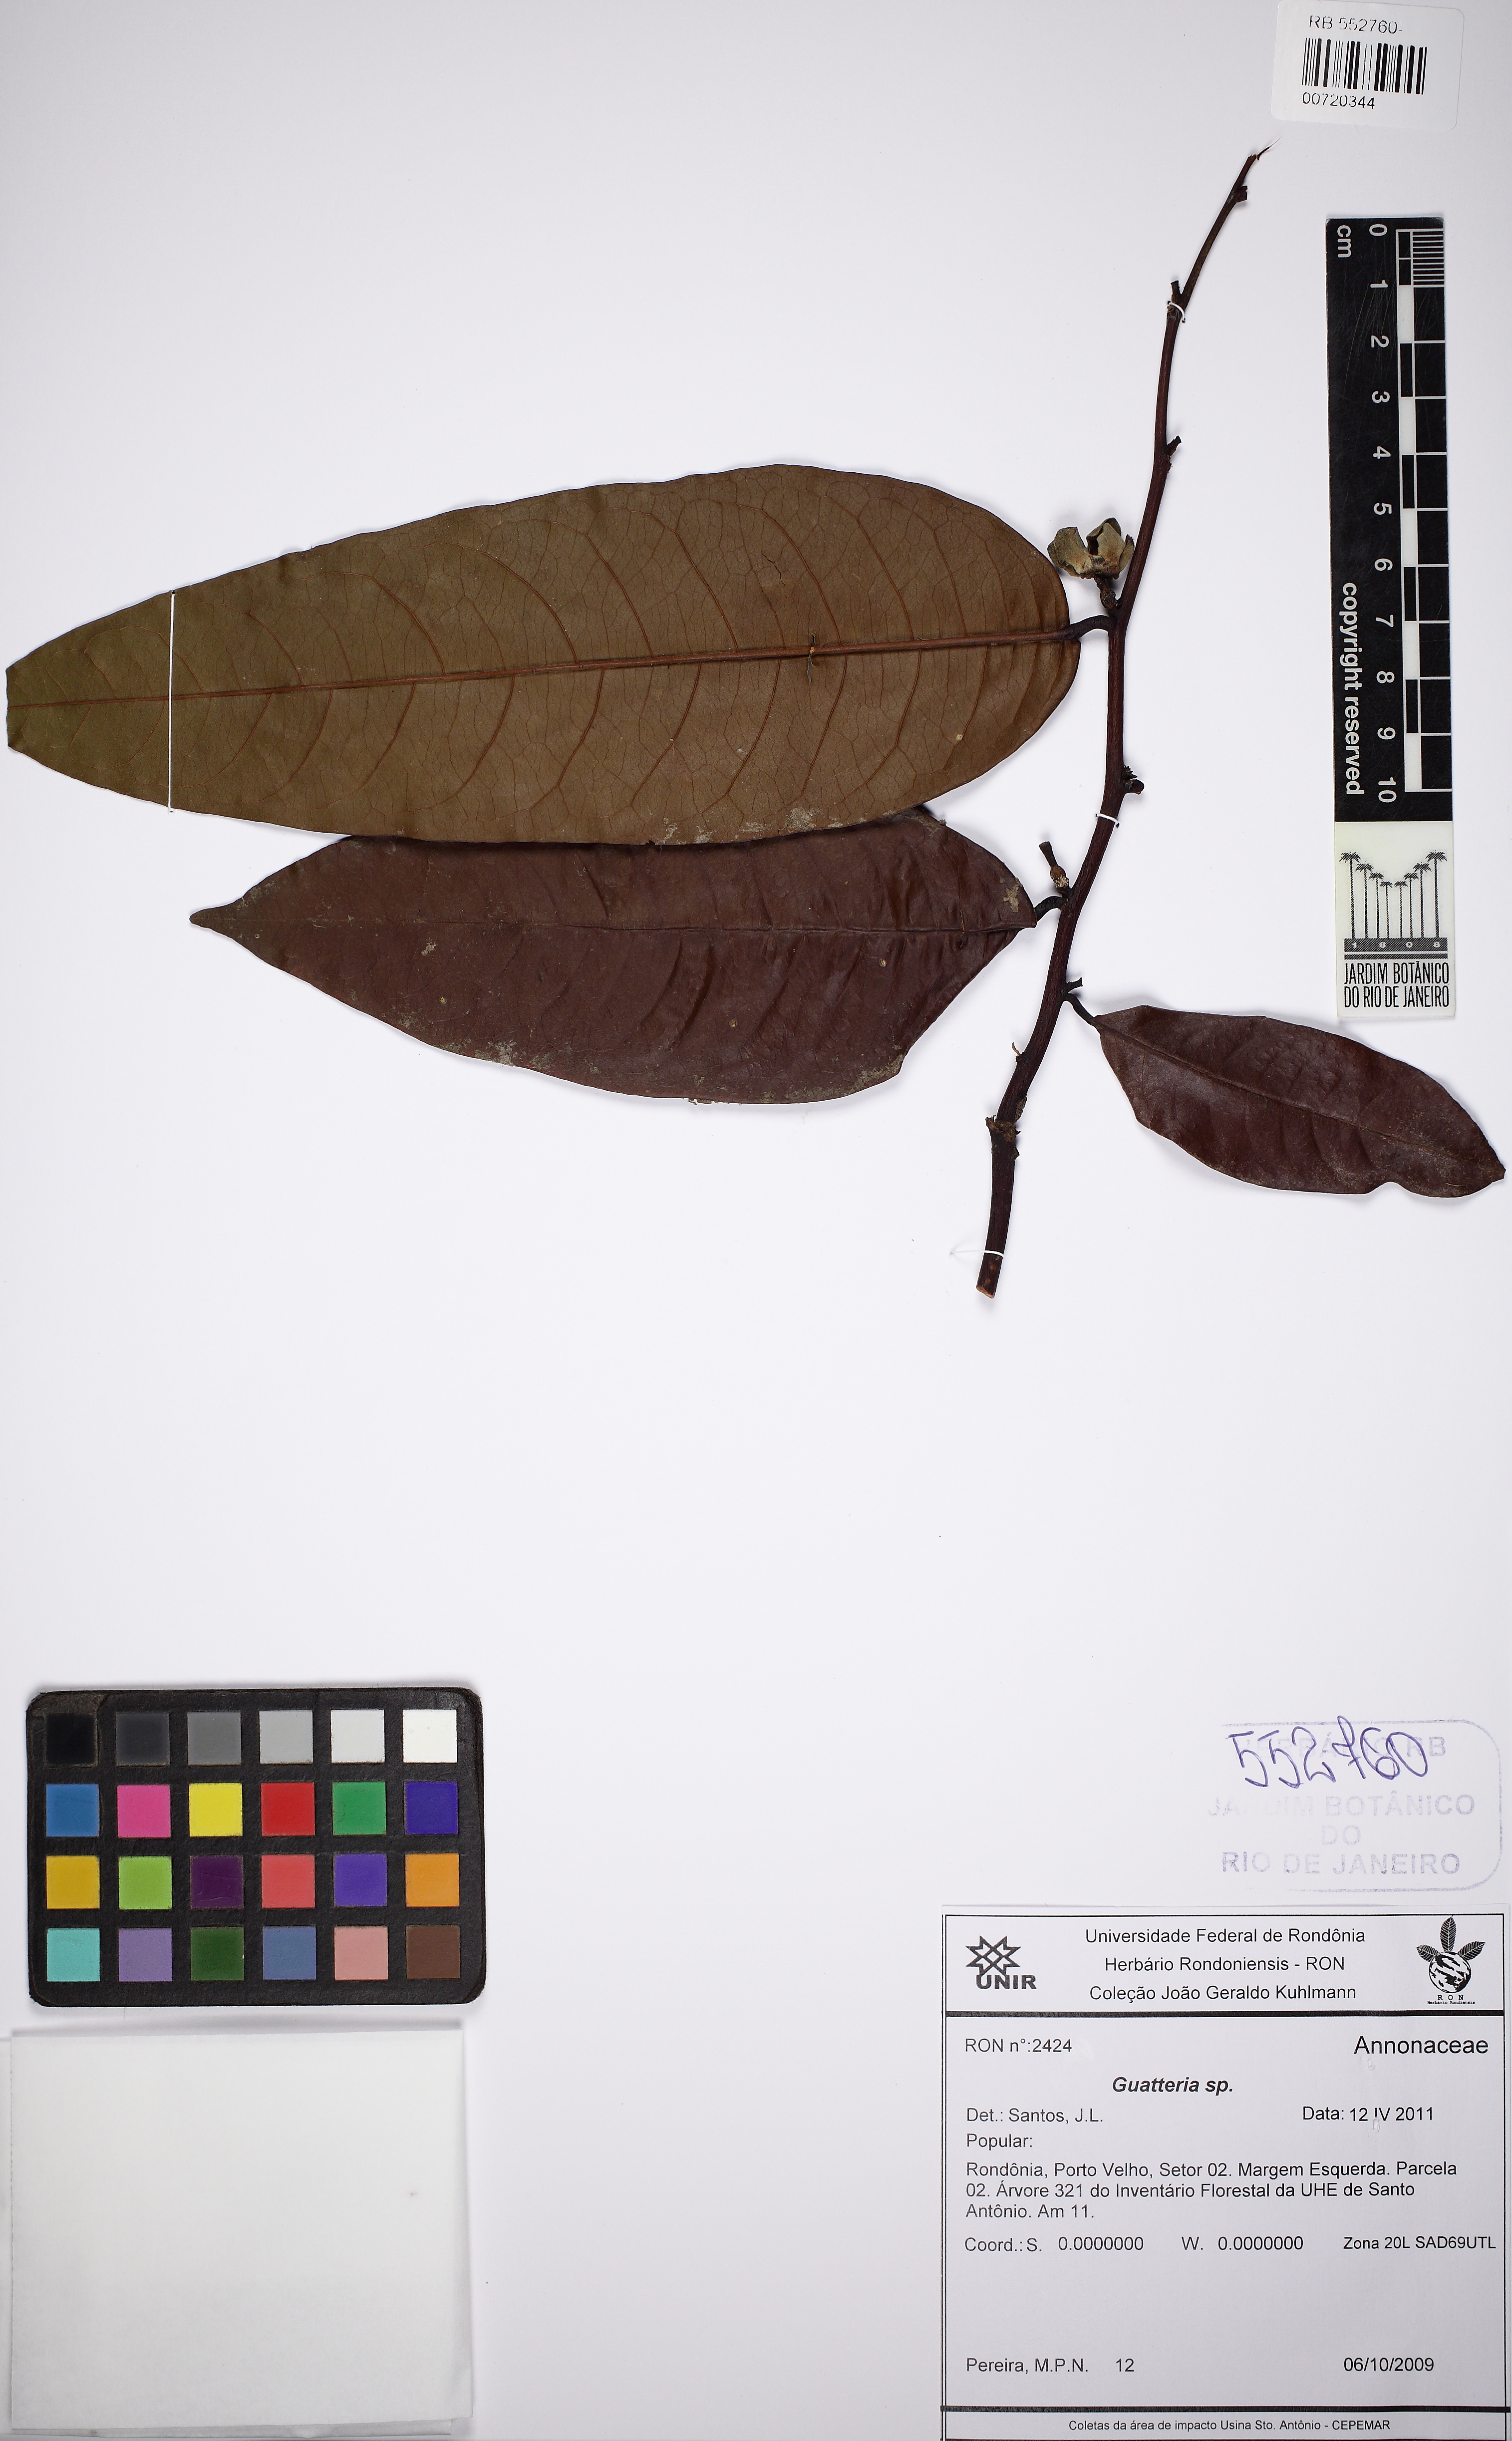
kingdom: Plantae
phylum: Tracheophyta
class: Magnoliopsida
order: Magnoliales
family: Annonaceae
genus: Guatteria
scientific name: Guatteria
